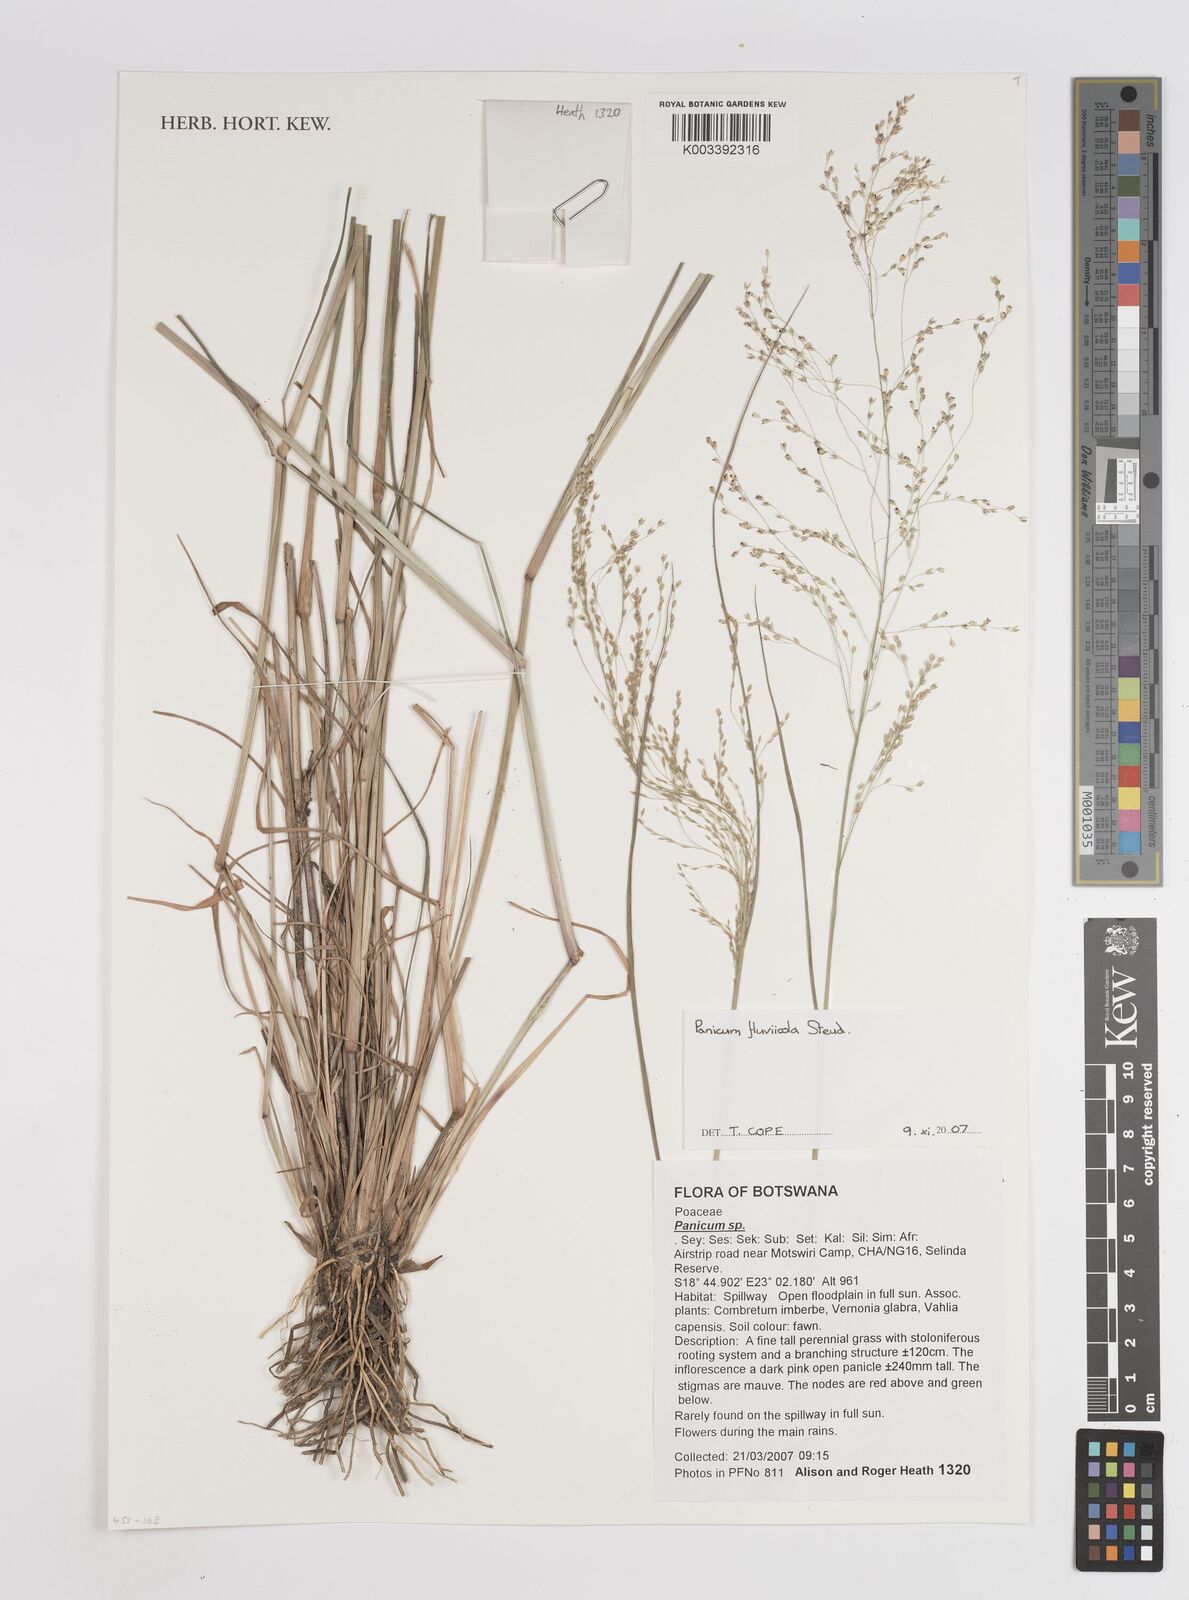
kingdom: Plantae
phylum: Tracheophyta
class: Liliopsida
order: Poales
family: Poaceae
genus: Panicum
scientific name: Panicum fluviicola
